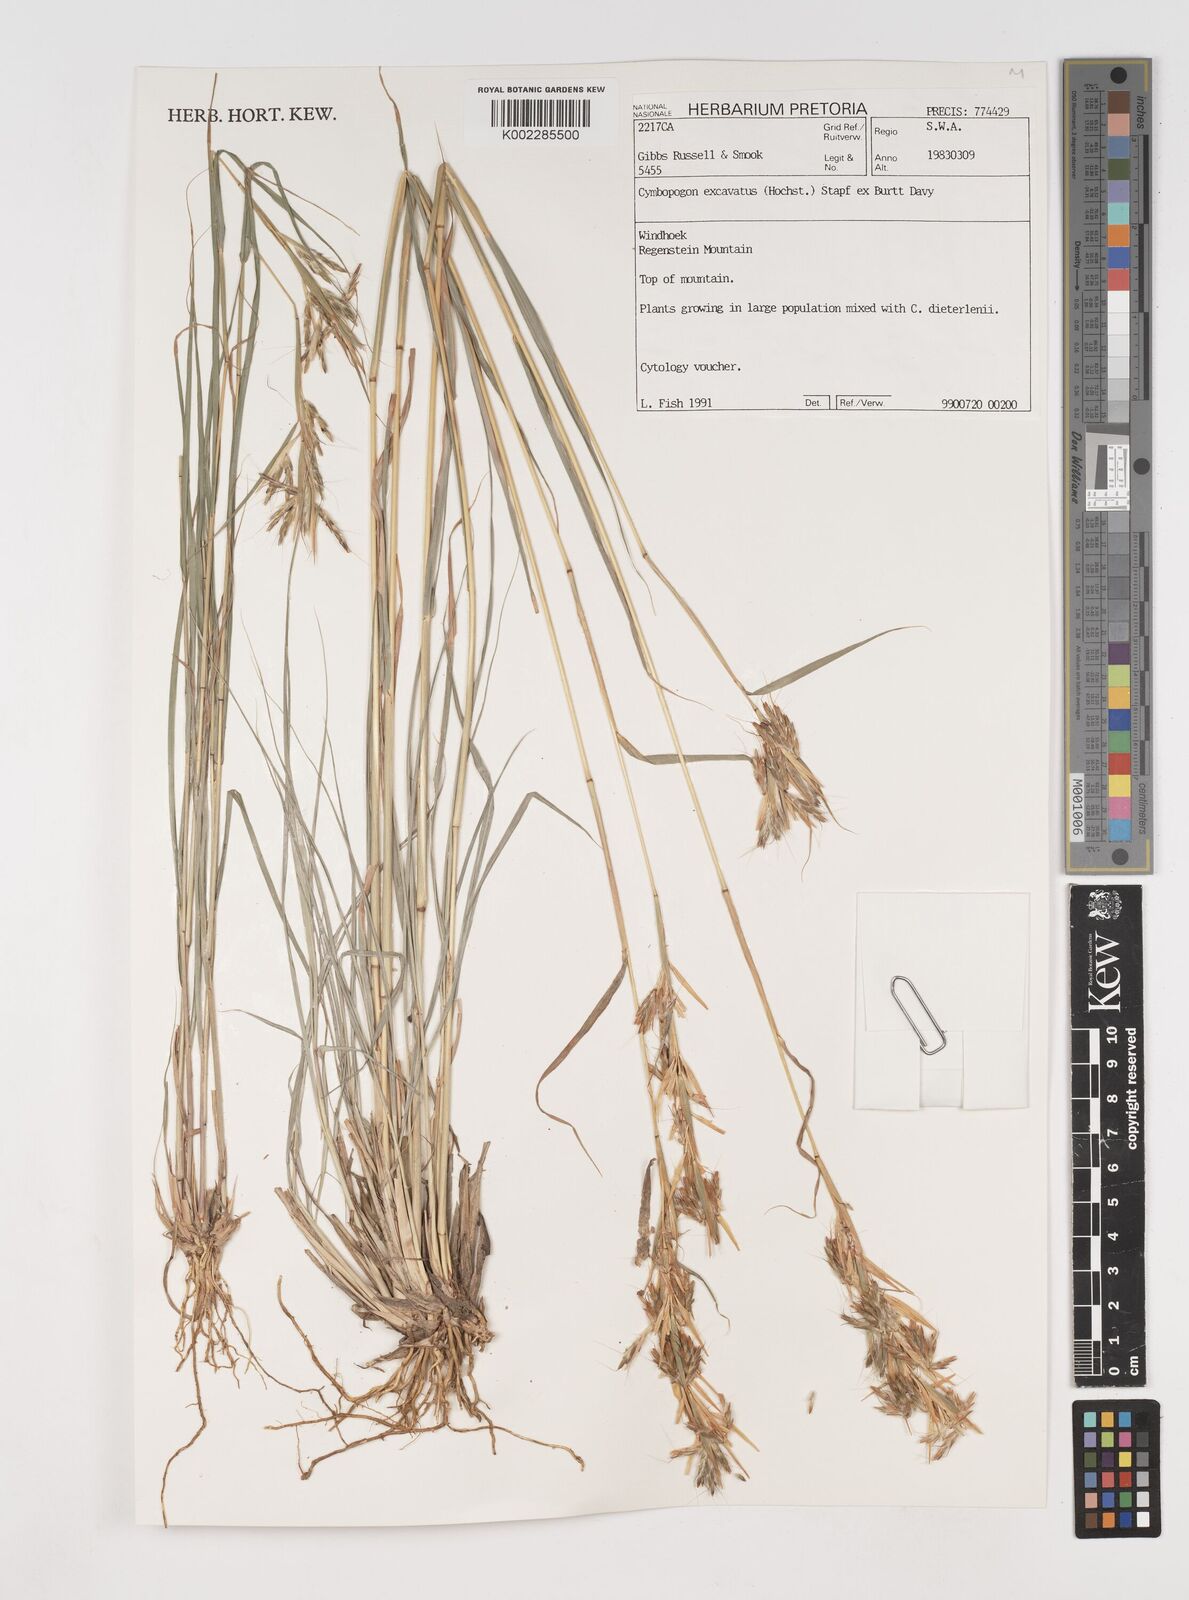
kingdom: Plantae
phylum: Tracheophyta
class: Liliopsida
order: Poales
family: Poaceae
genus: Cymbopogon
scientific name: Cymbopogon caesius
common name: Kachi grass
